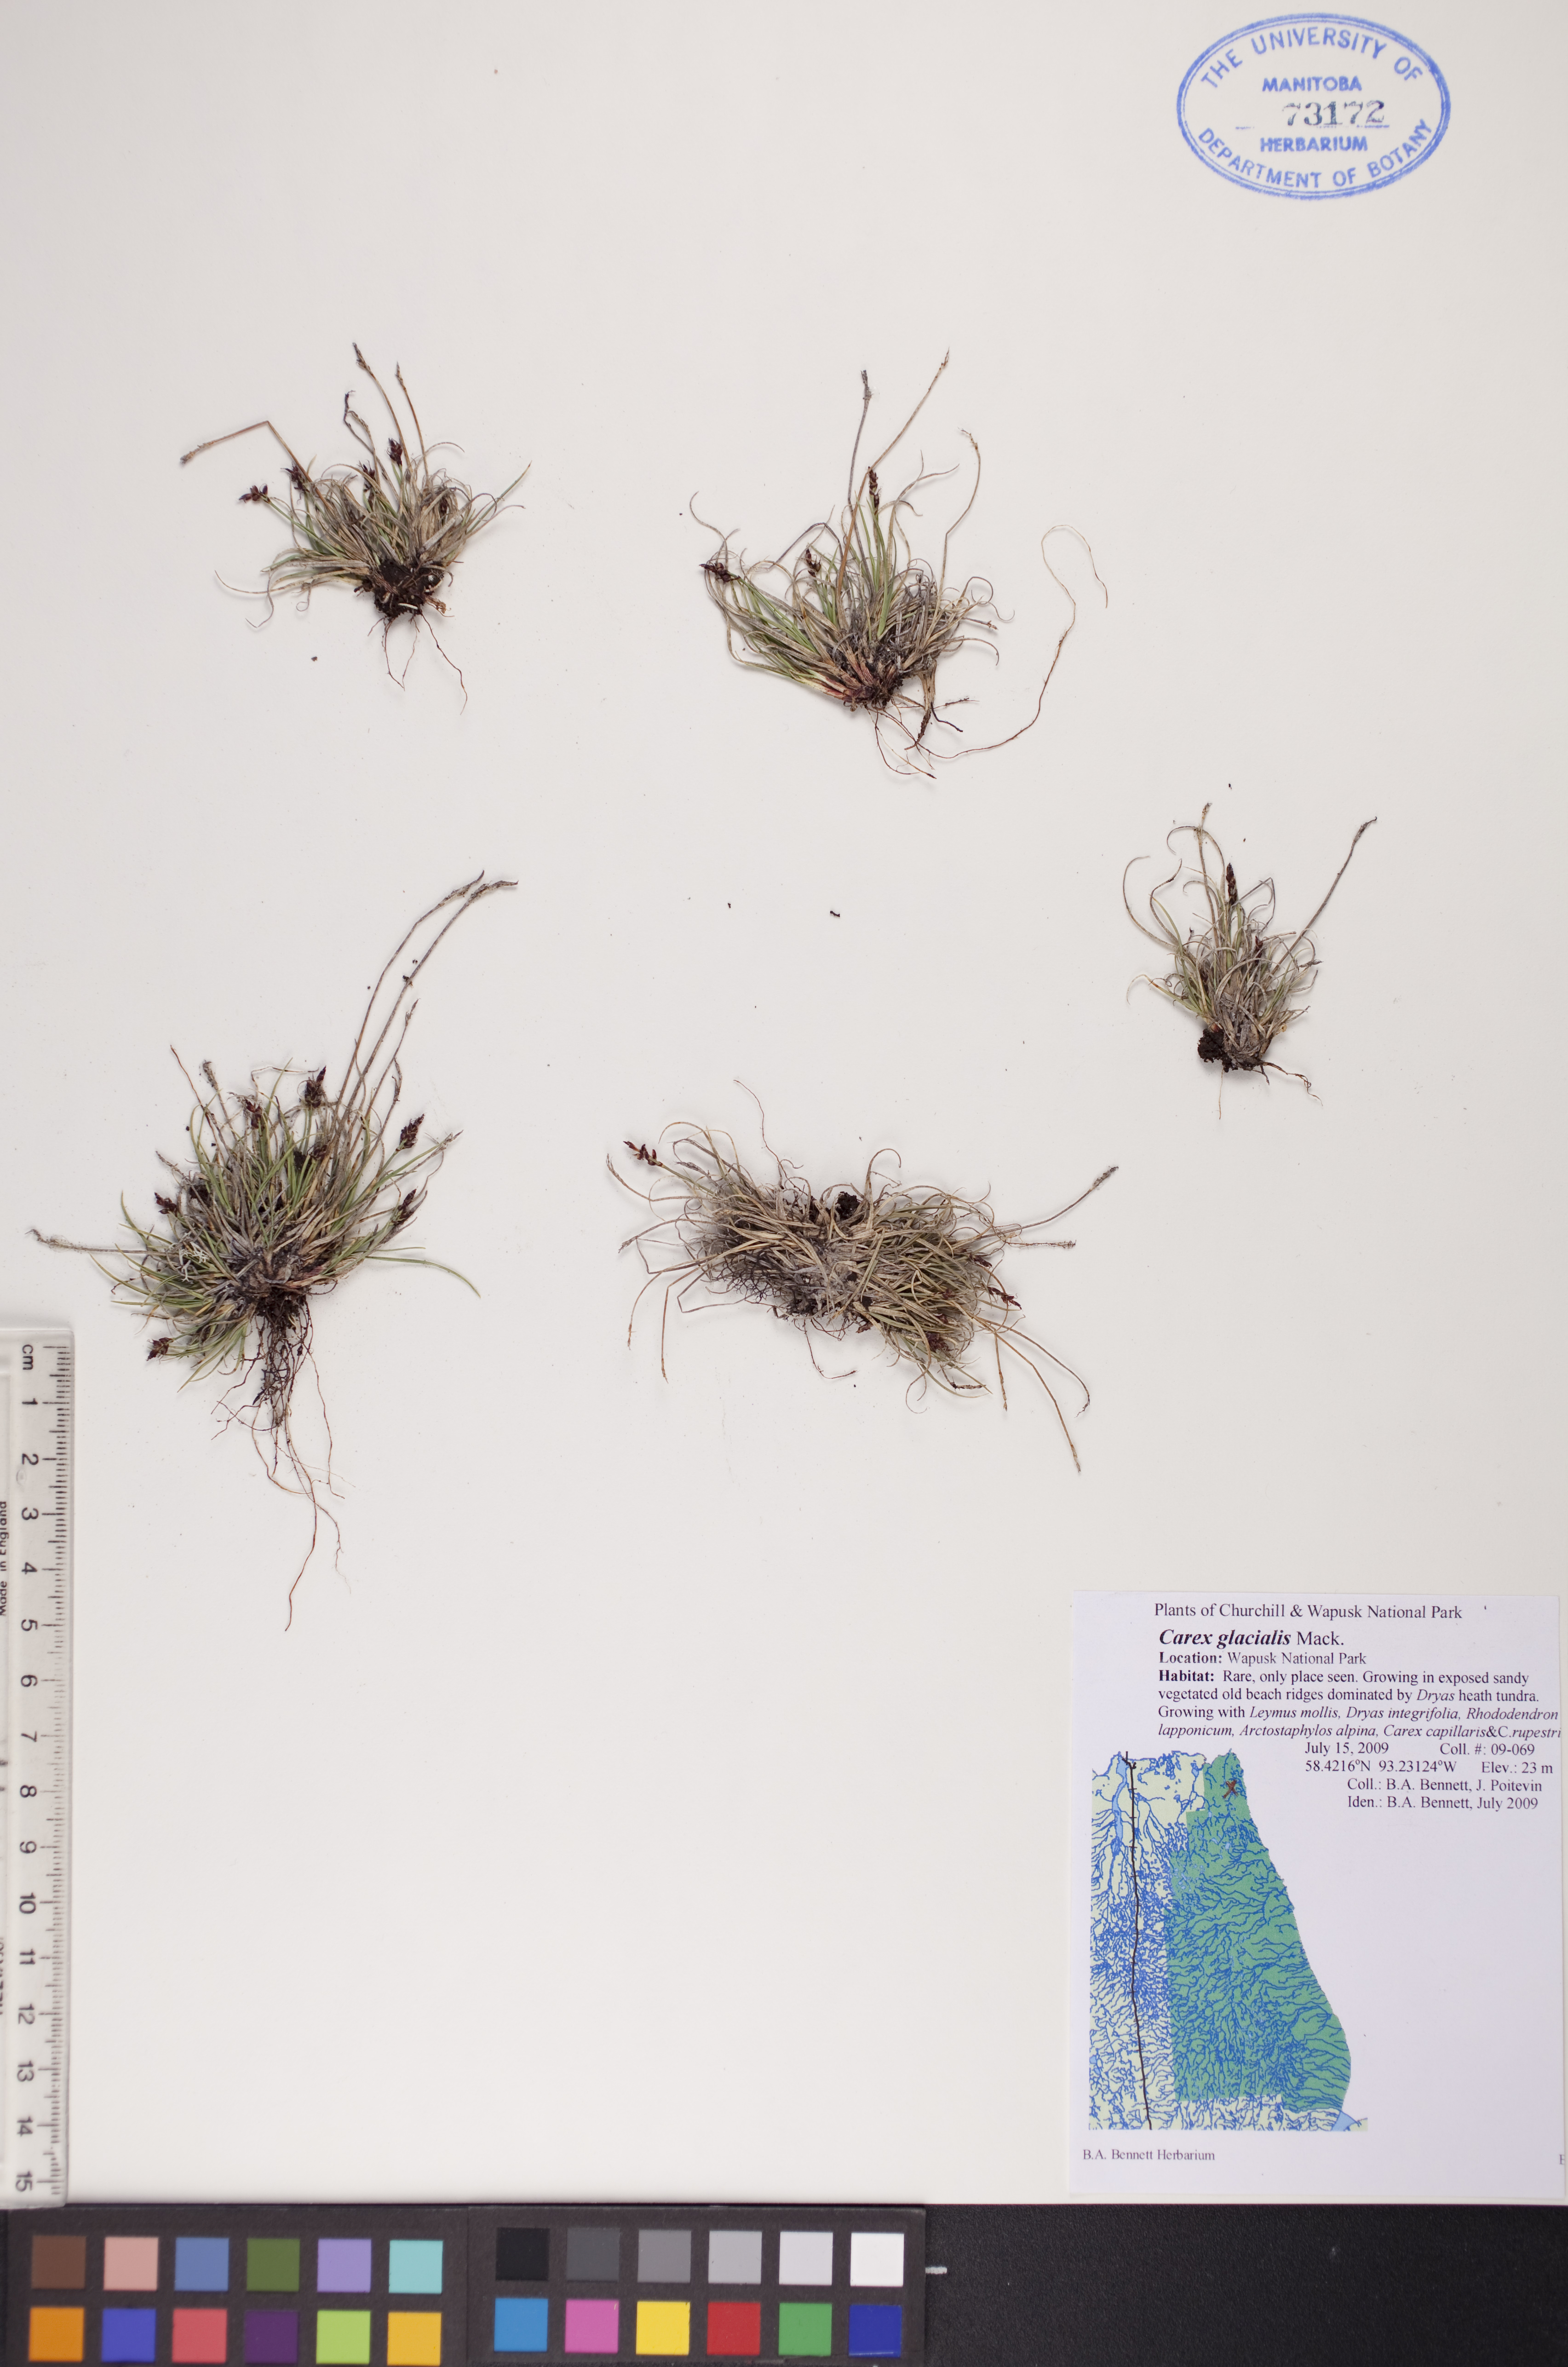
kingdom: Plantae
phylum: Tracheophyta
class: Liliopsida
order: Poales
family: Cyperaceae
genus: Carex
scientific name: Carex glacialis
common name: Newfoundland sedge
